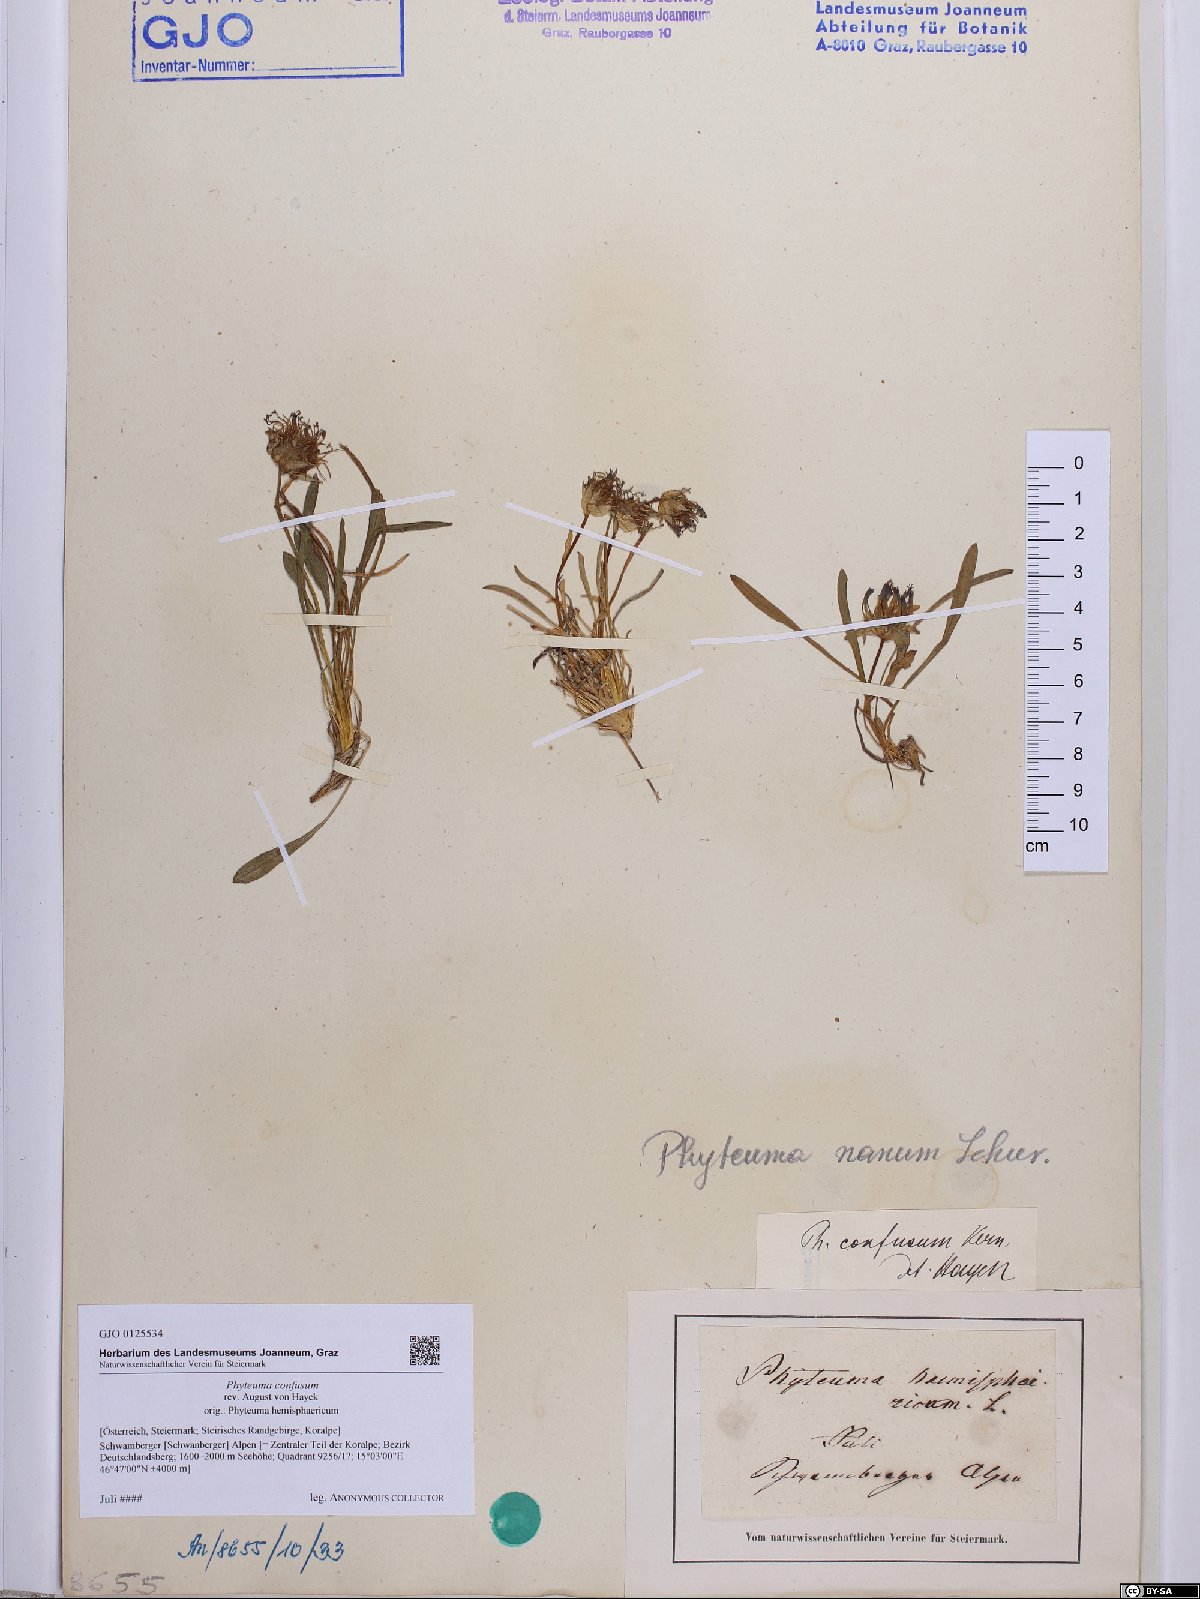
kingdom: Plantae
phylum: Tracheophyta
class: Magnoliopsida
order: Asterales
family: Campanulaceae
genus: Phyteuma
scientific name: Phyteuma confusum
